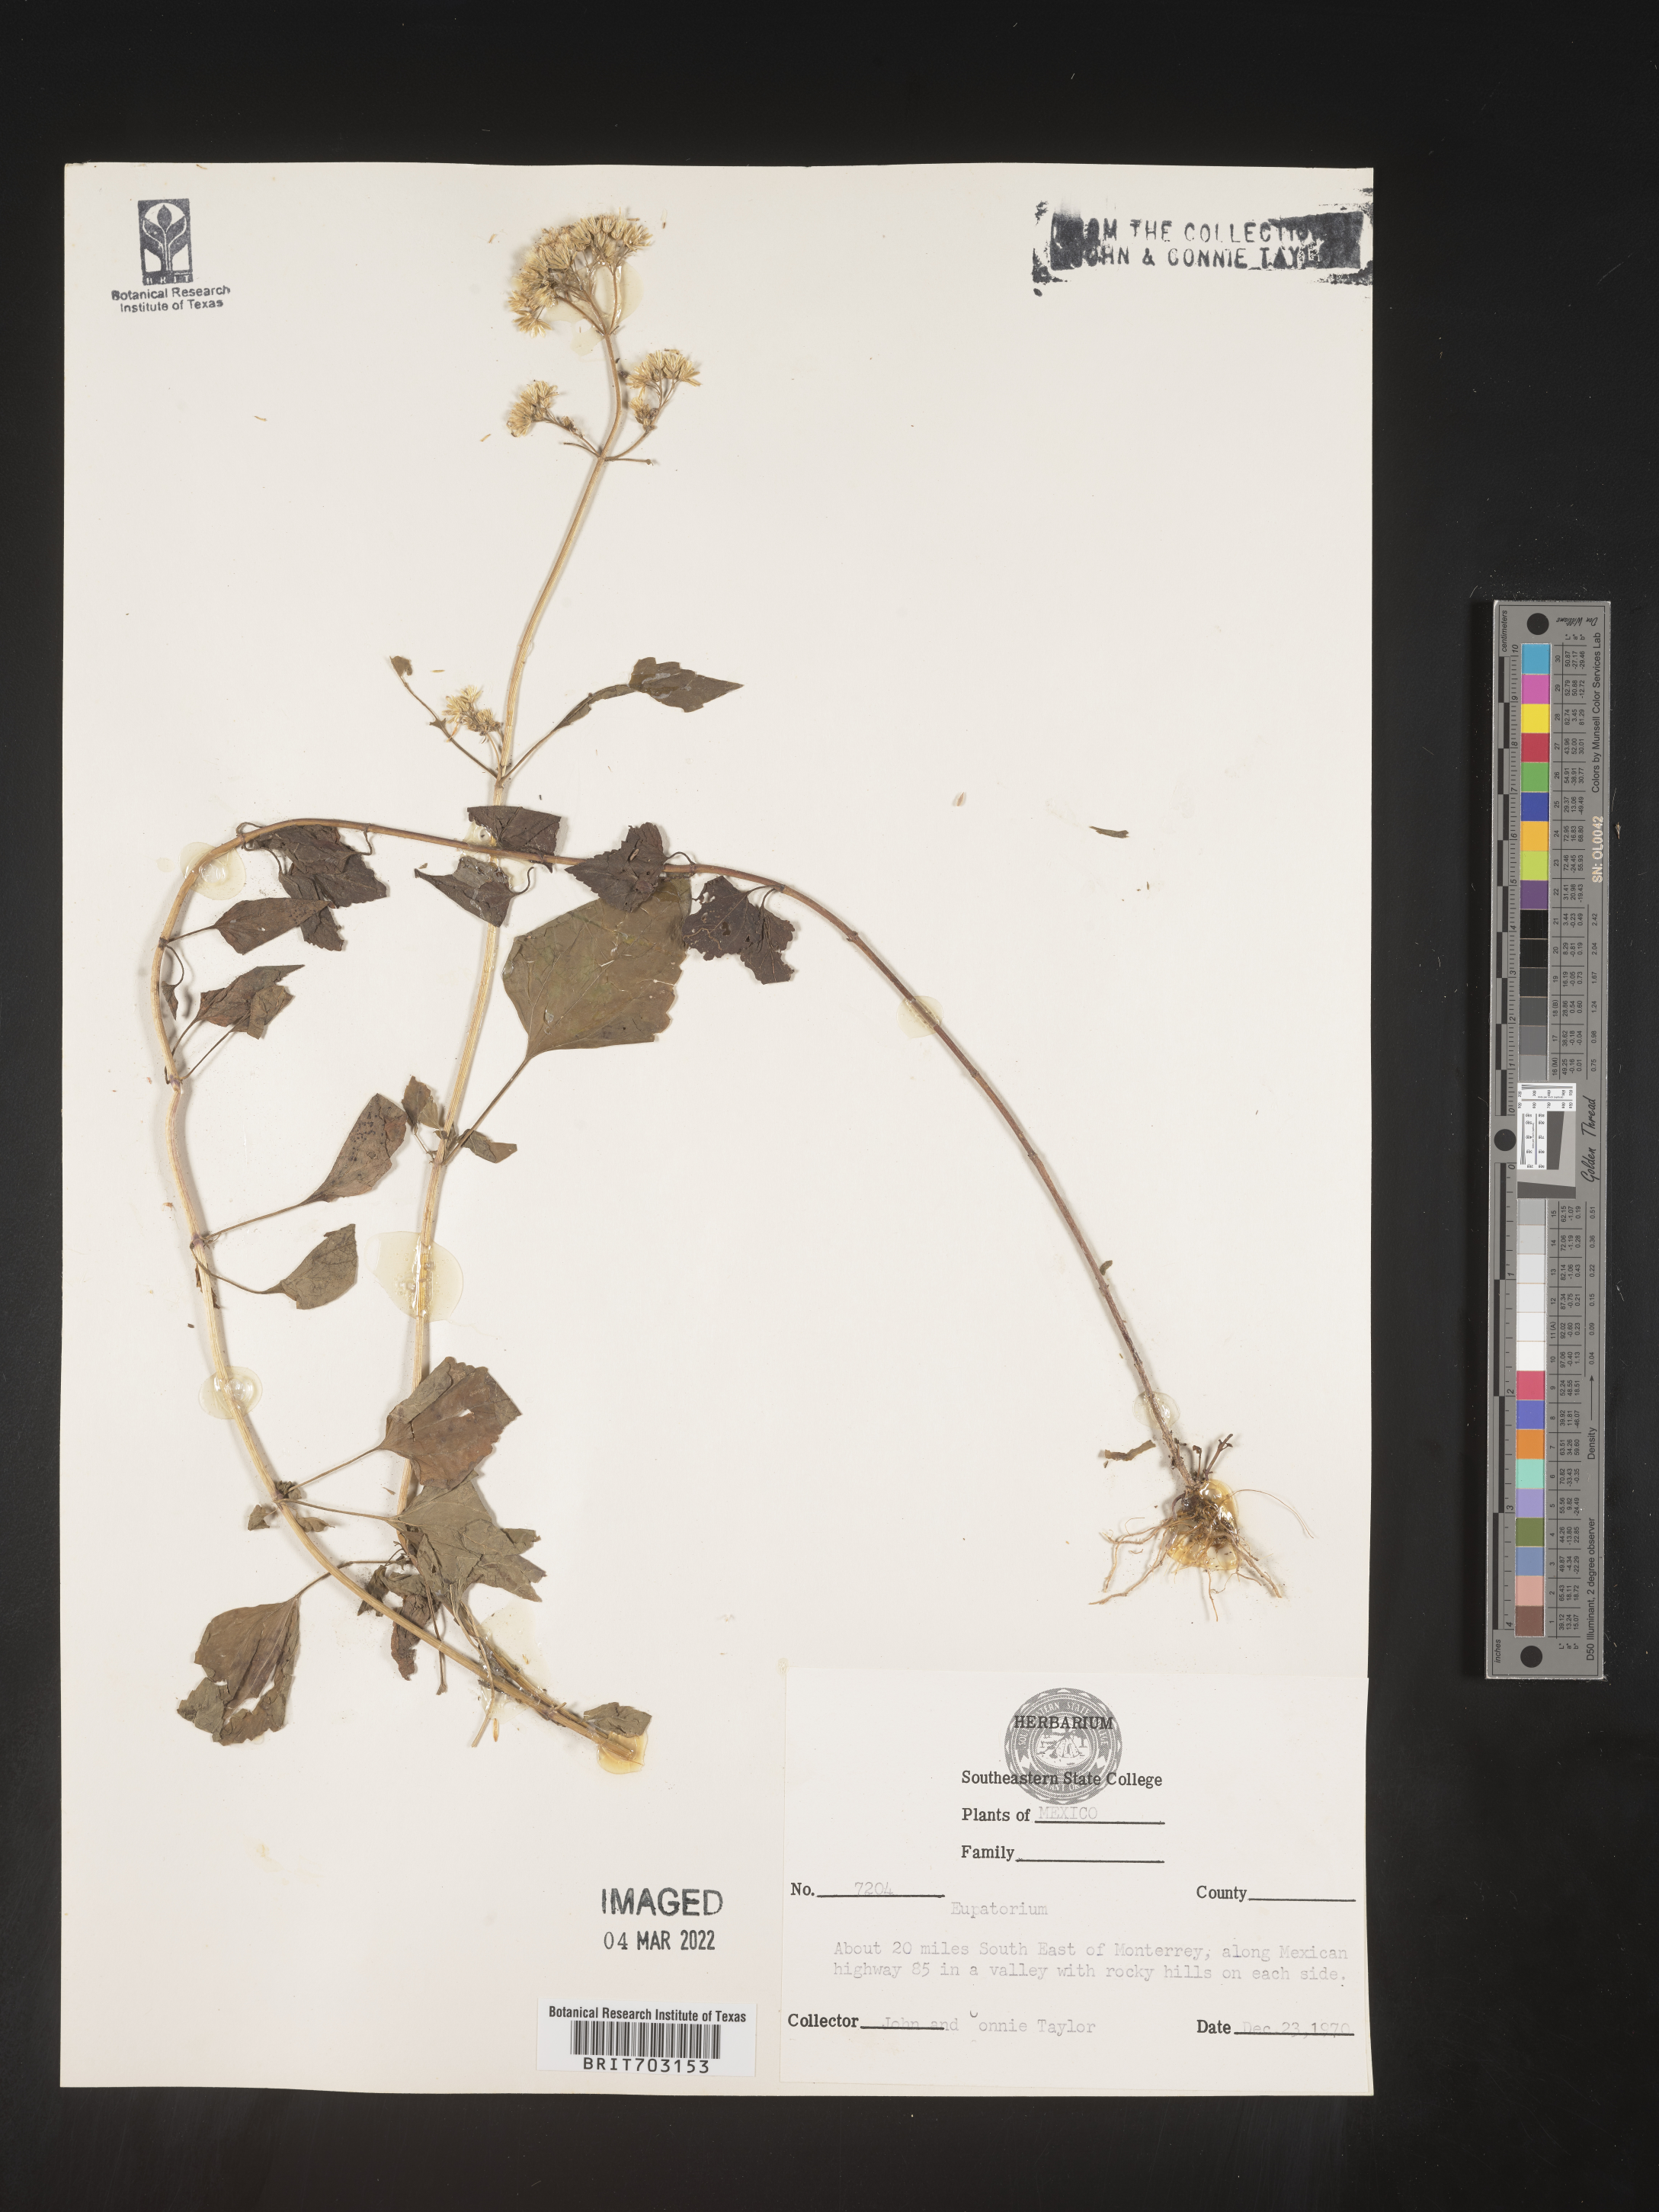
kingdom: Plantae
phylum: Tracheophyta
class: Magnoliopsida
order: Asterales
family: Asteraceae
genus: Eupatorium
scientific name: Eupatorium
